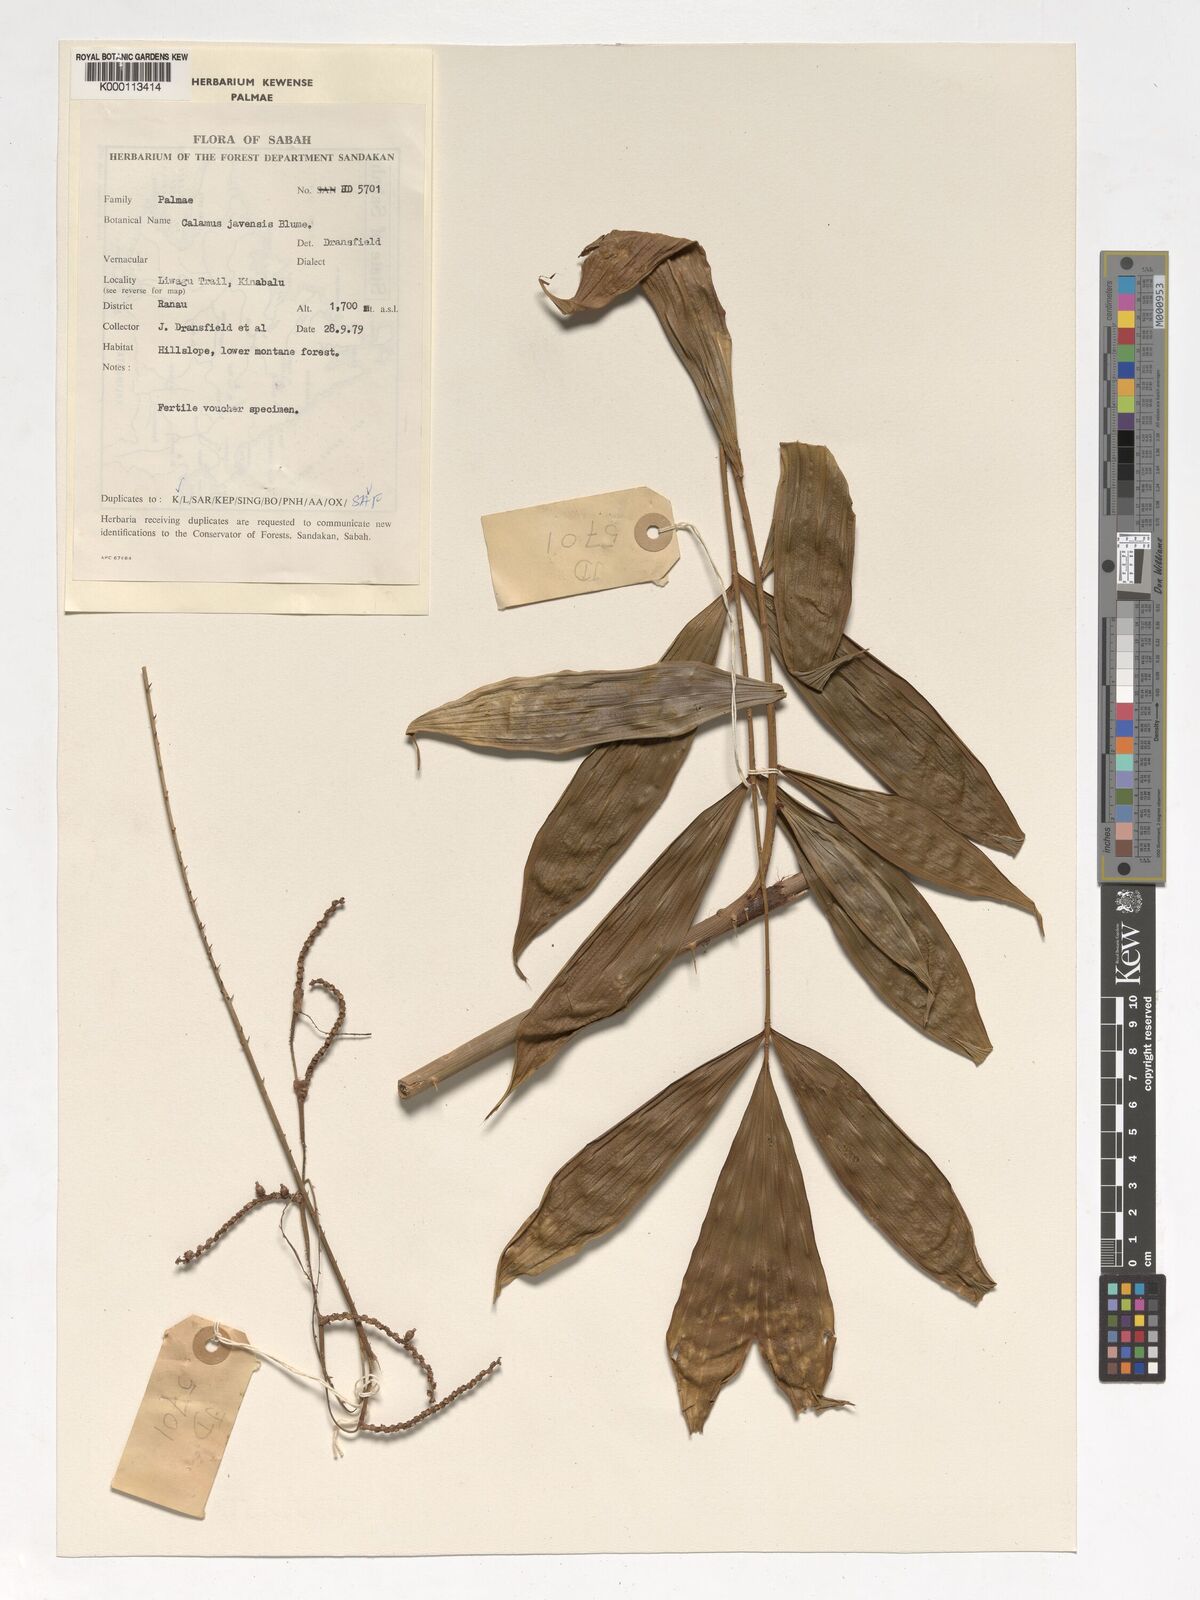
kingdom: Plantae
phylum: Tracheophyta
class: Liliopsida
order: Arecales
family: Arecaceae
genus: Calamus
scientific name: Calamus javensis
